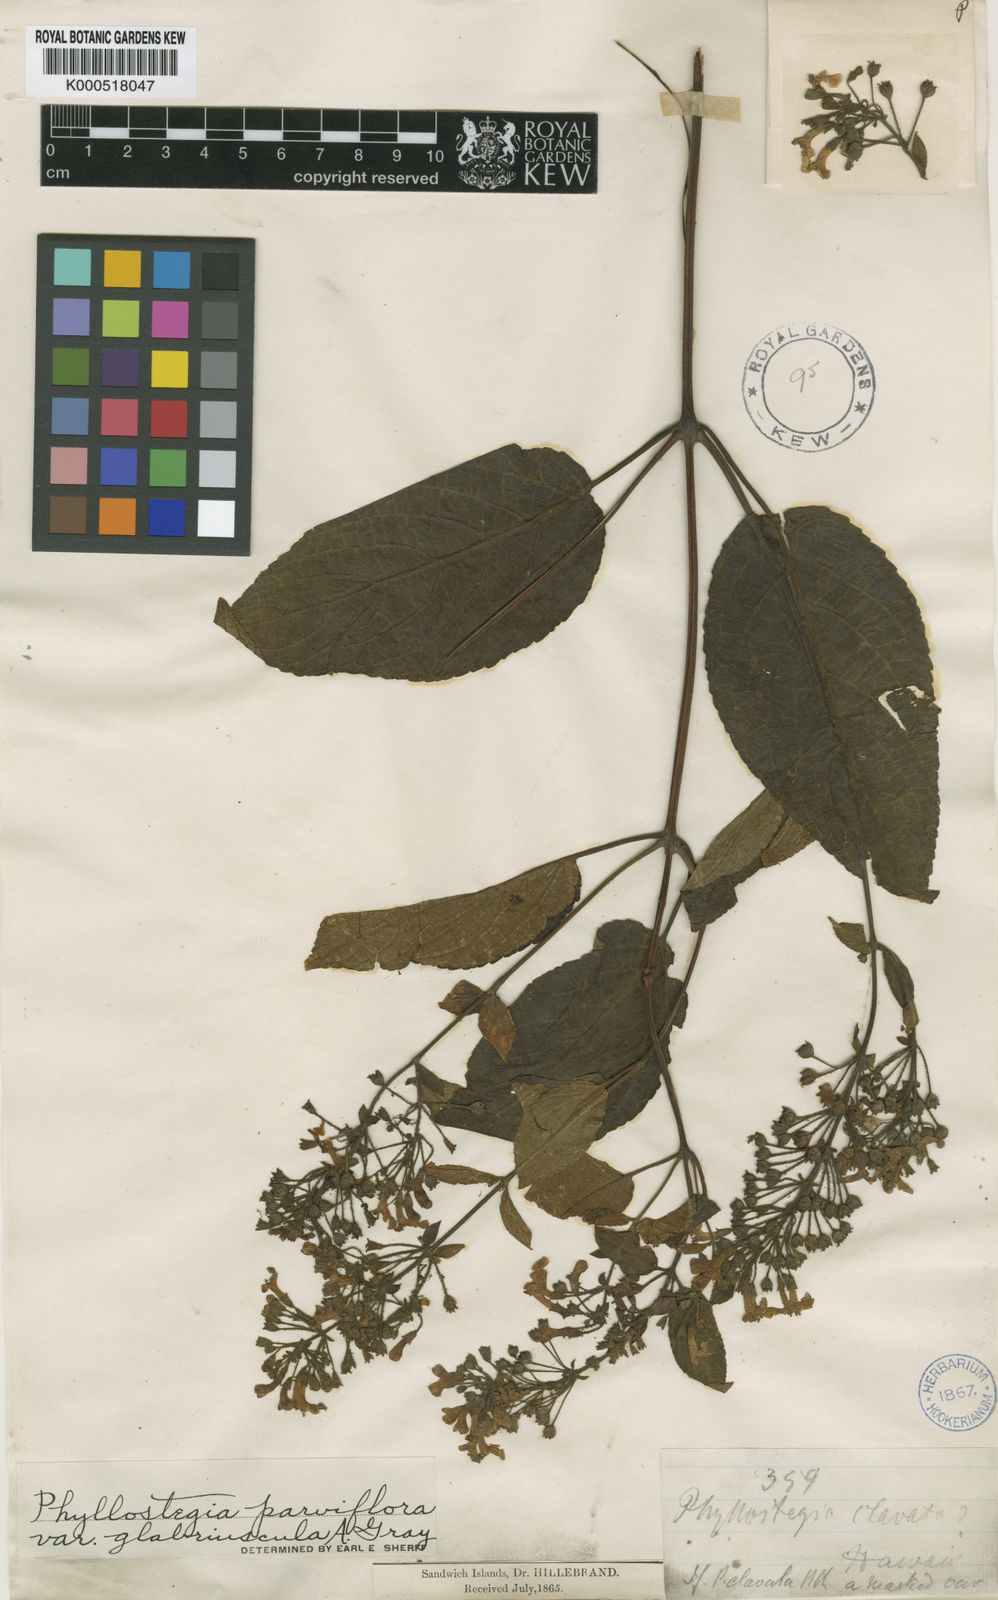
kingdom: Plantae
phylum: Tracheophyta
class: Magnoliopsida
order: Lamiales
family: Lamiaceae
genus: Phyllostegia
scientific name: Phyllostegia parviflora
